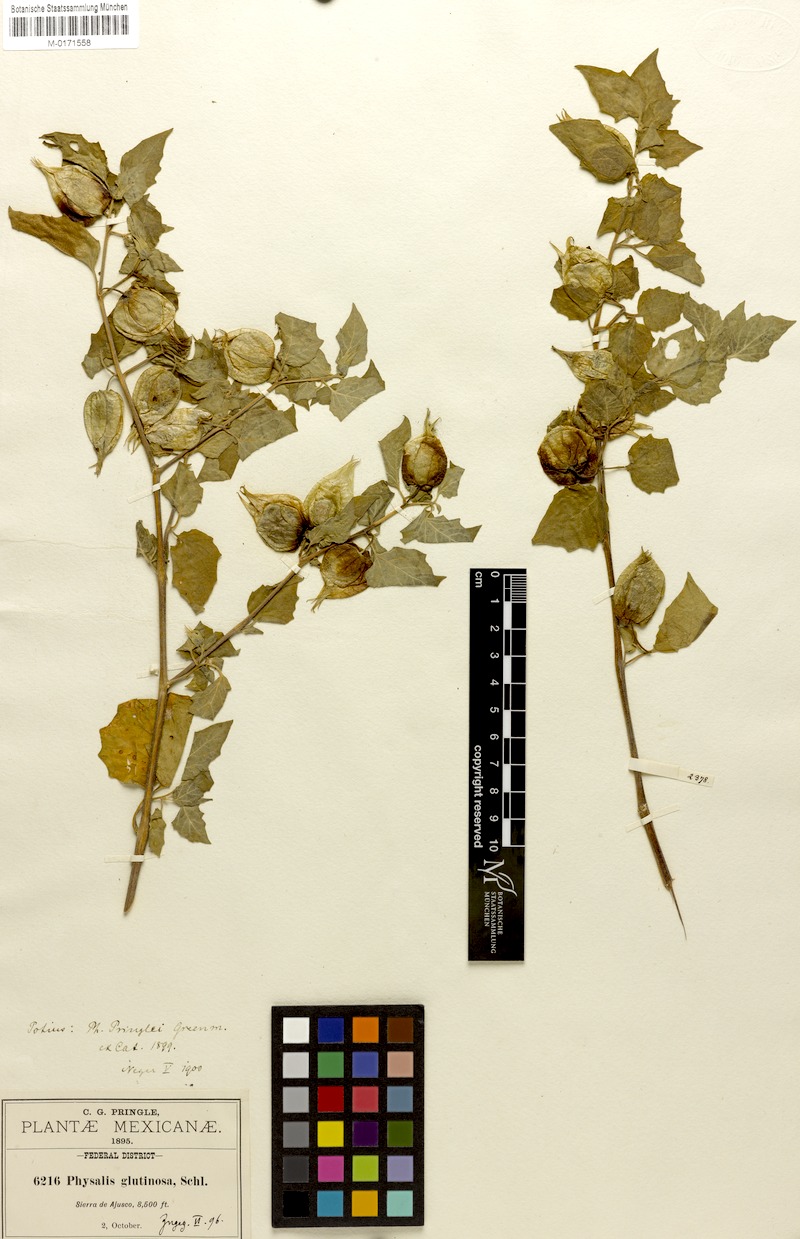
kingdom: Plantae
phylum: Tracheophyta
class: Magnoliopsida
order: Solanales
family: Solanaceae
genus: Physalis
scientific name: Physalis pringlei
